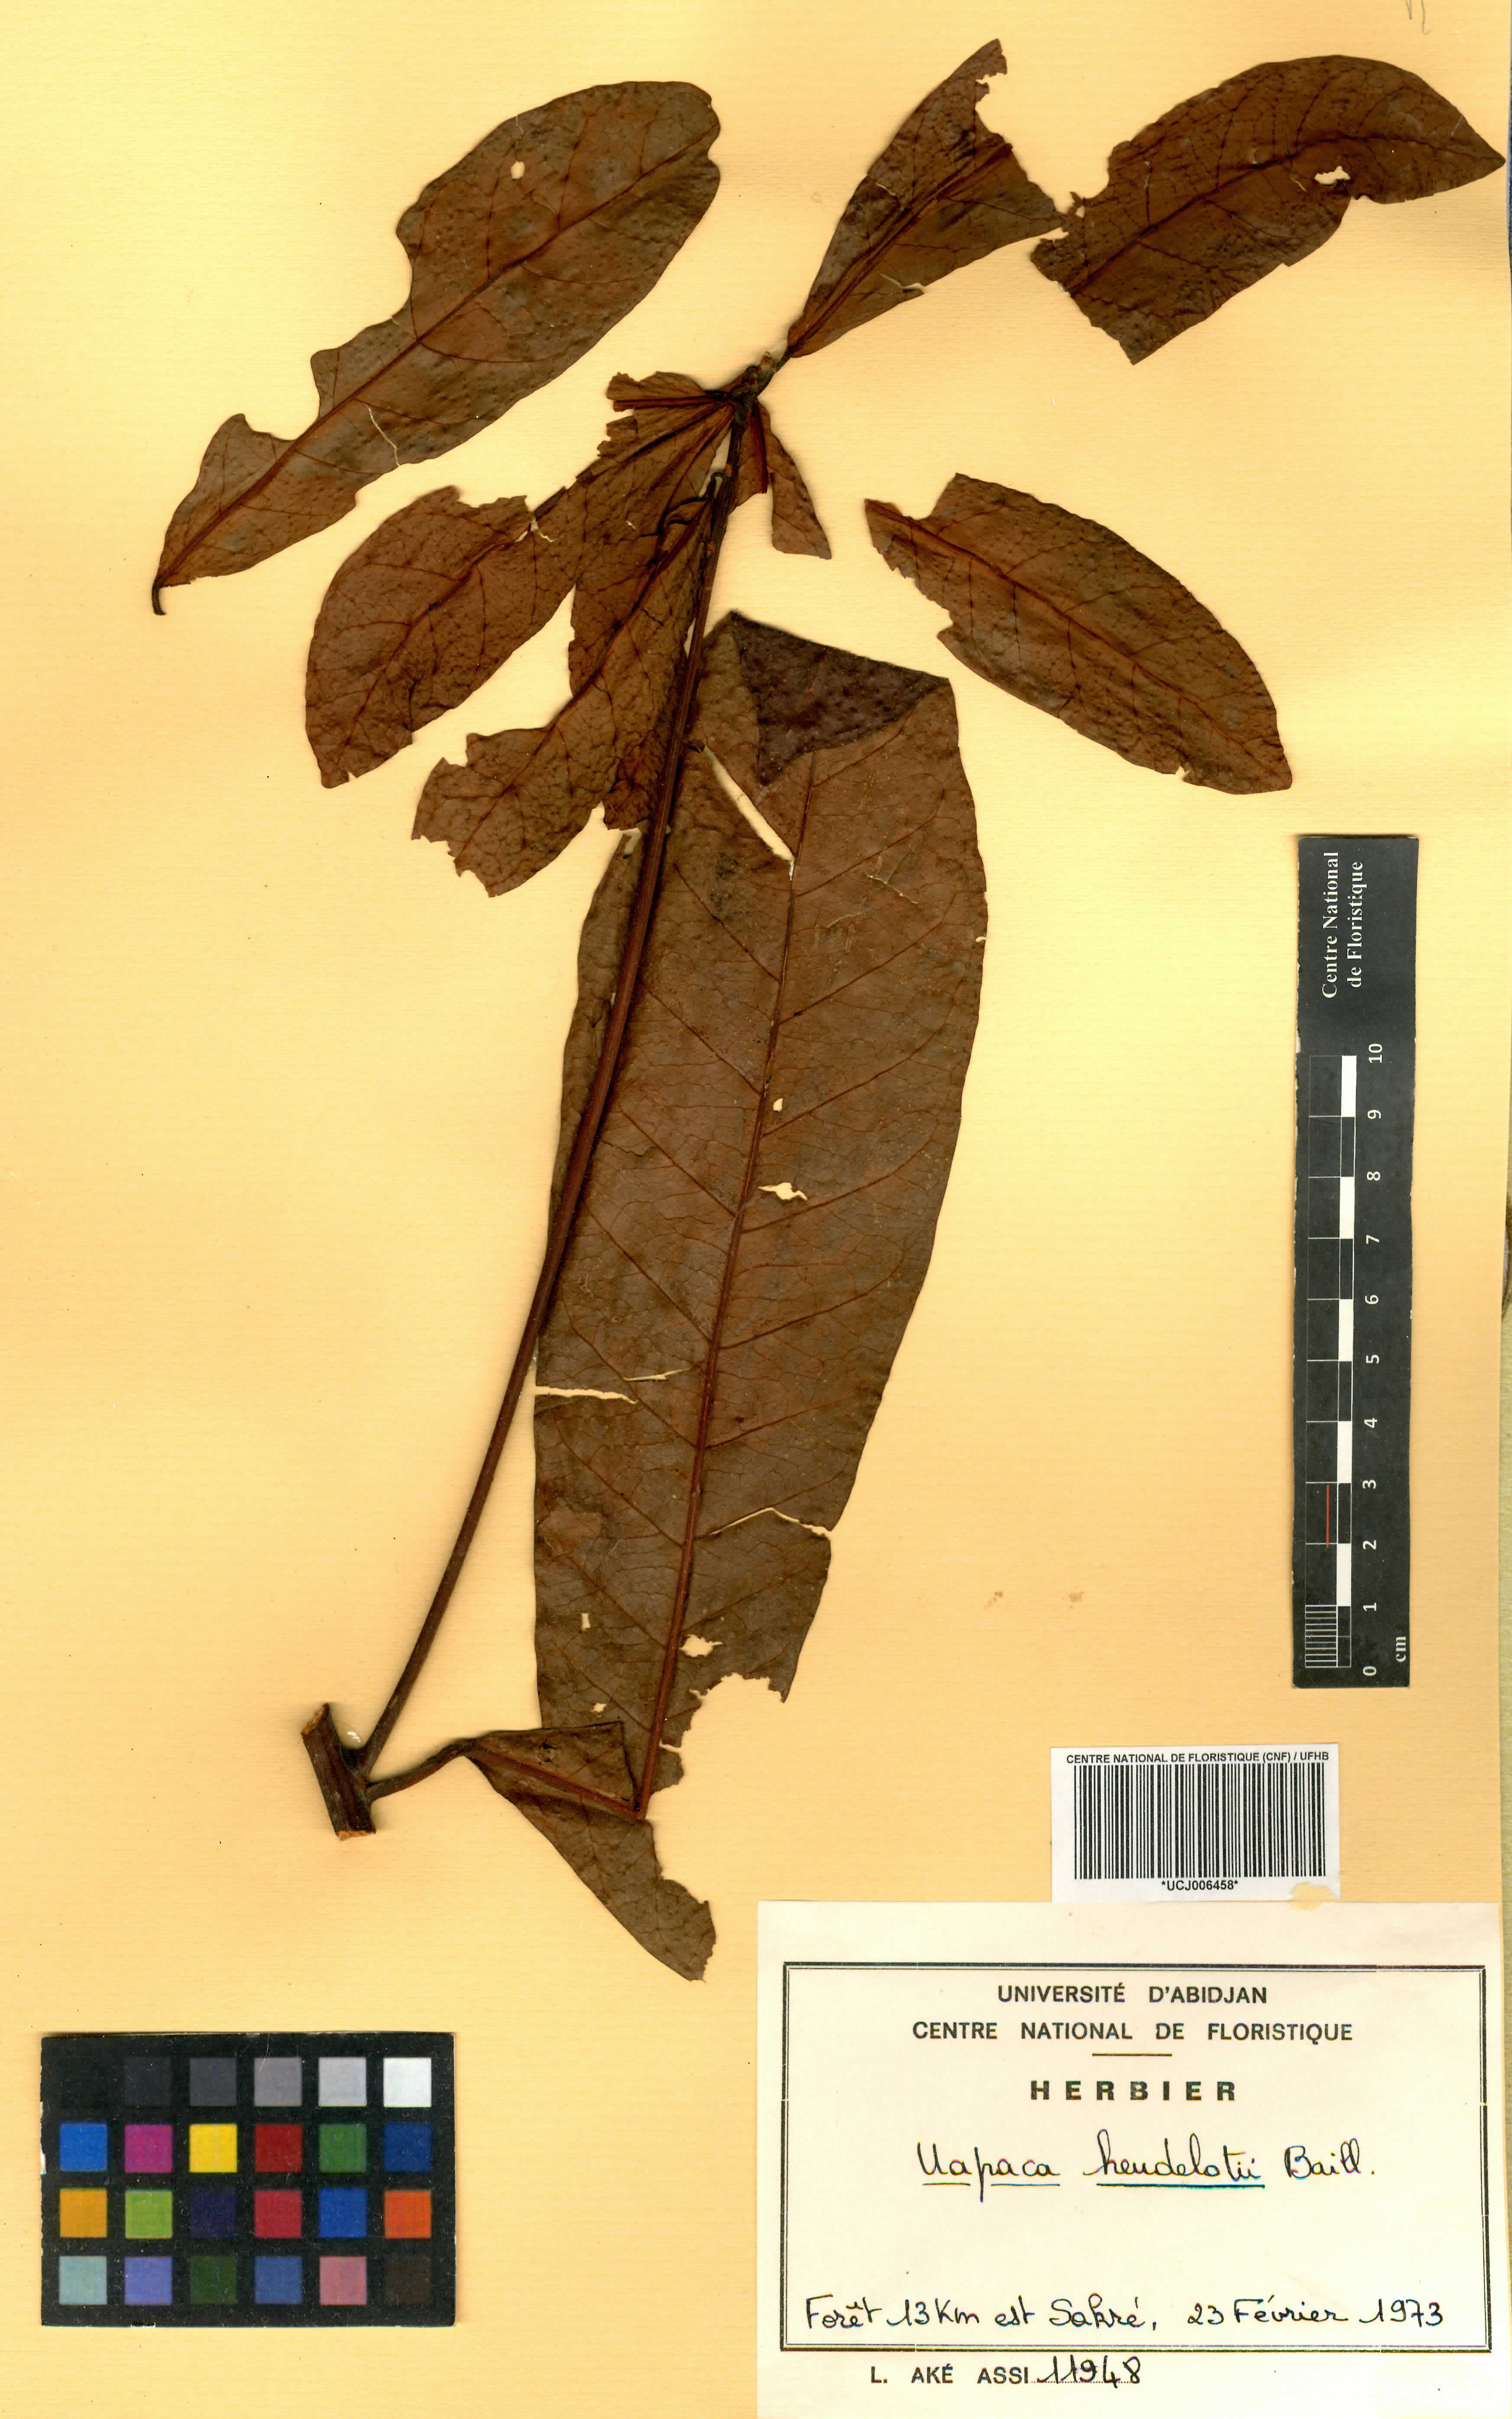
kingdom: Plantae
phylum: Tracheophyta
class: Magnoliopsida
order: Malpighiales
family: Phyllanthaceae
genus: Uapaca
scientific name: Uapaca heudelotii
